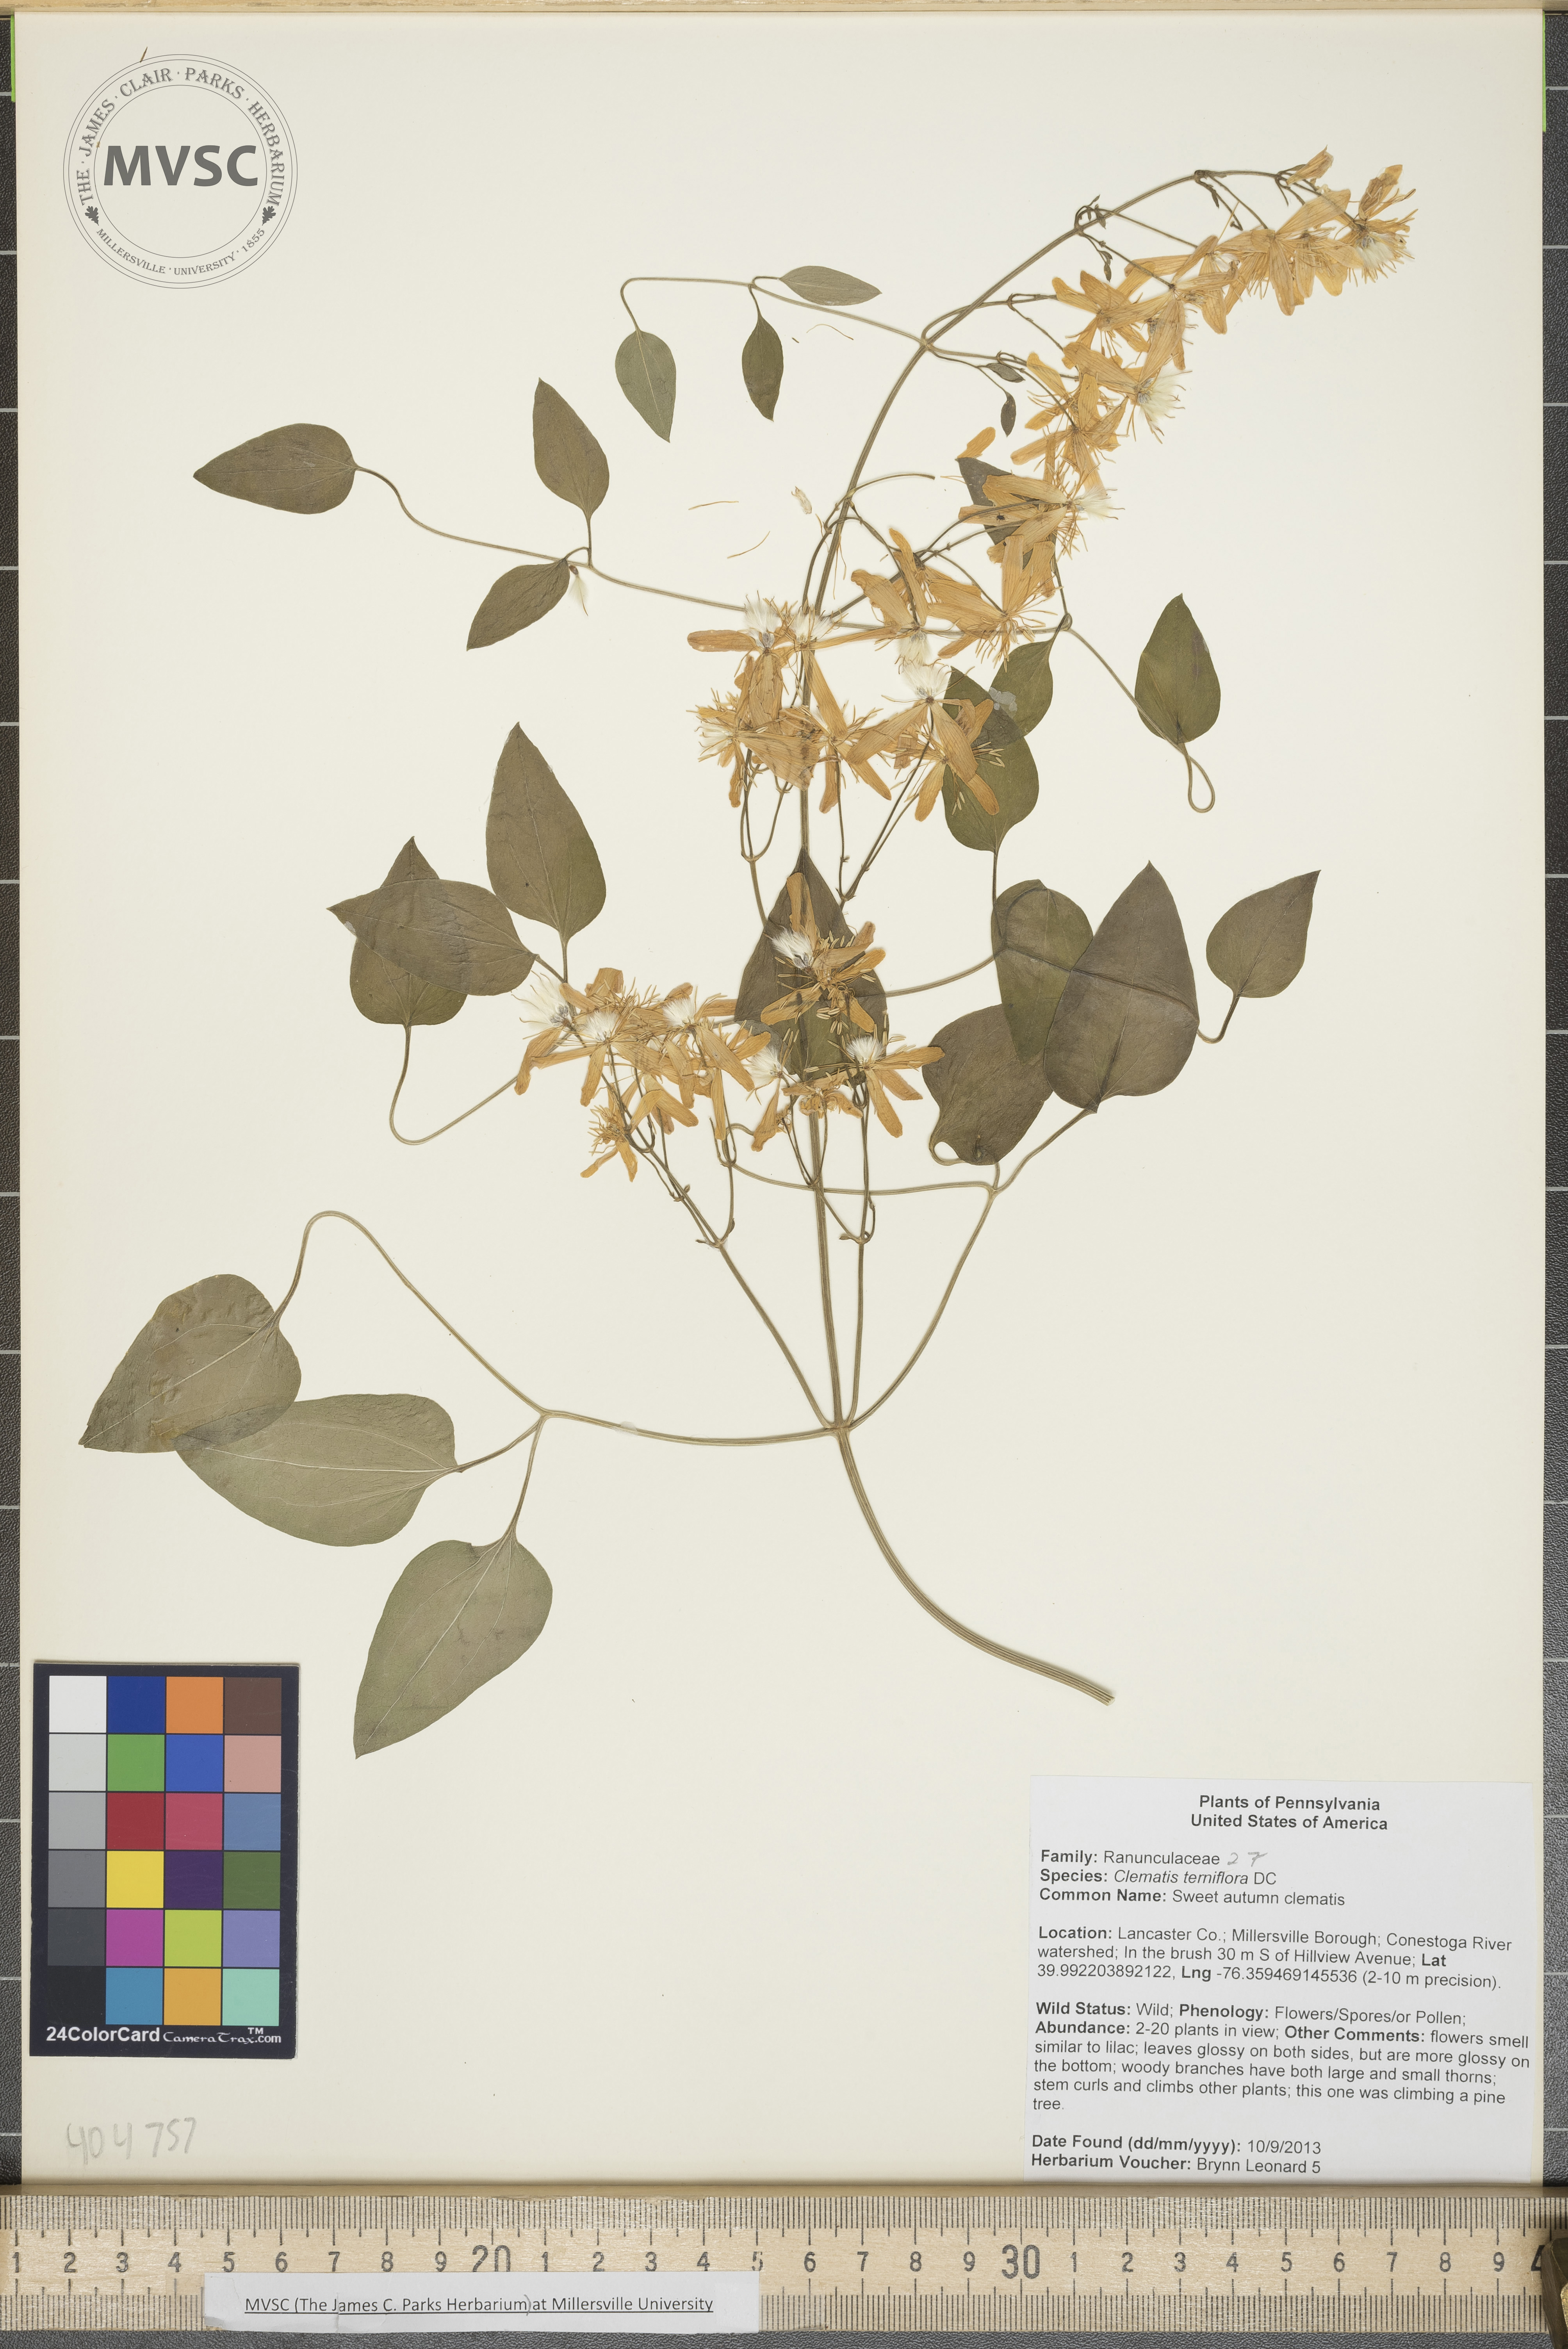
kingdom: Plantae
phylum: Tracheophyta
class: Magnoliopsida
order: Ranunculales
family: Ranunculaceae
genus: Clematis
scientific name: Clematis terniflora
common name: Sweet autumn clematis
